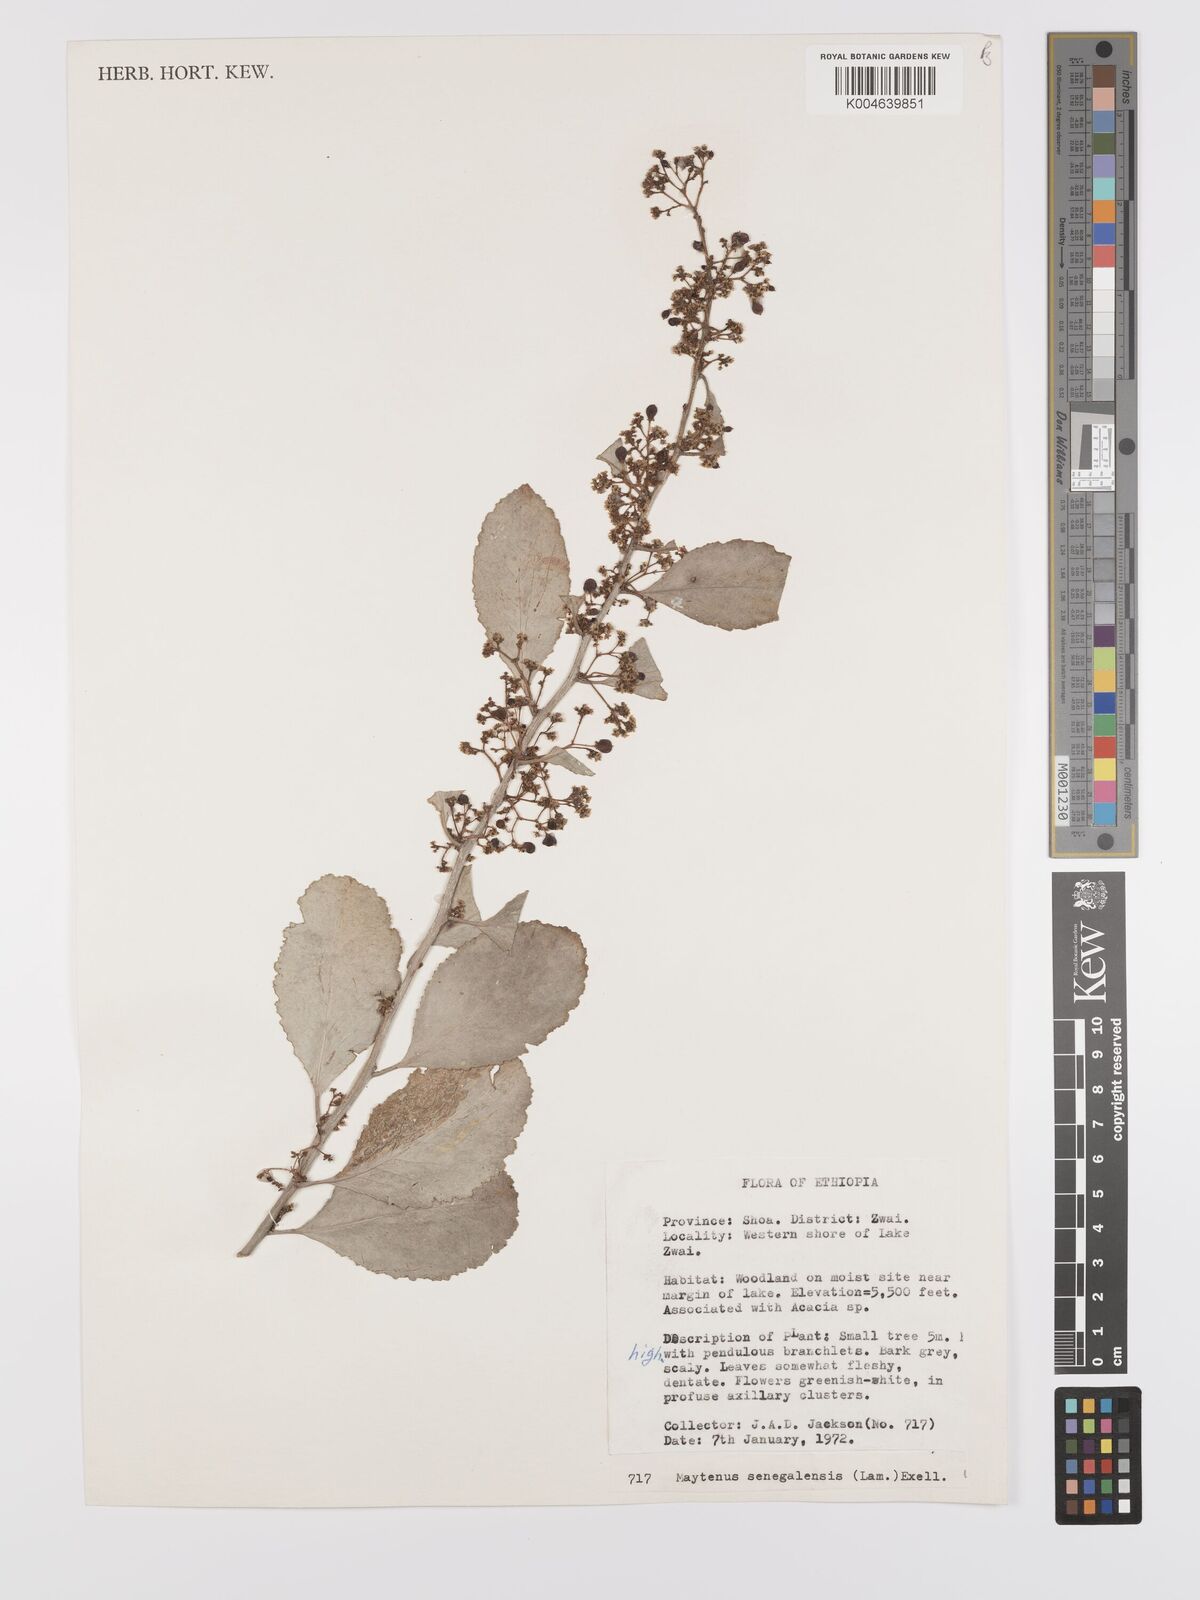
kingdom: Plantae
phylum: Tracheophyta
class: Magnoliopsida
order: Celastrales
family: Celastraceae
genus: Gymnosporia
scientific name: Gymnosporia senegalensis
